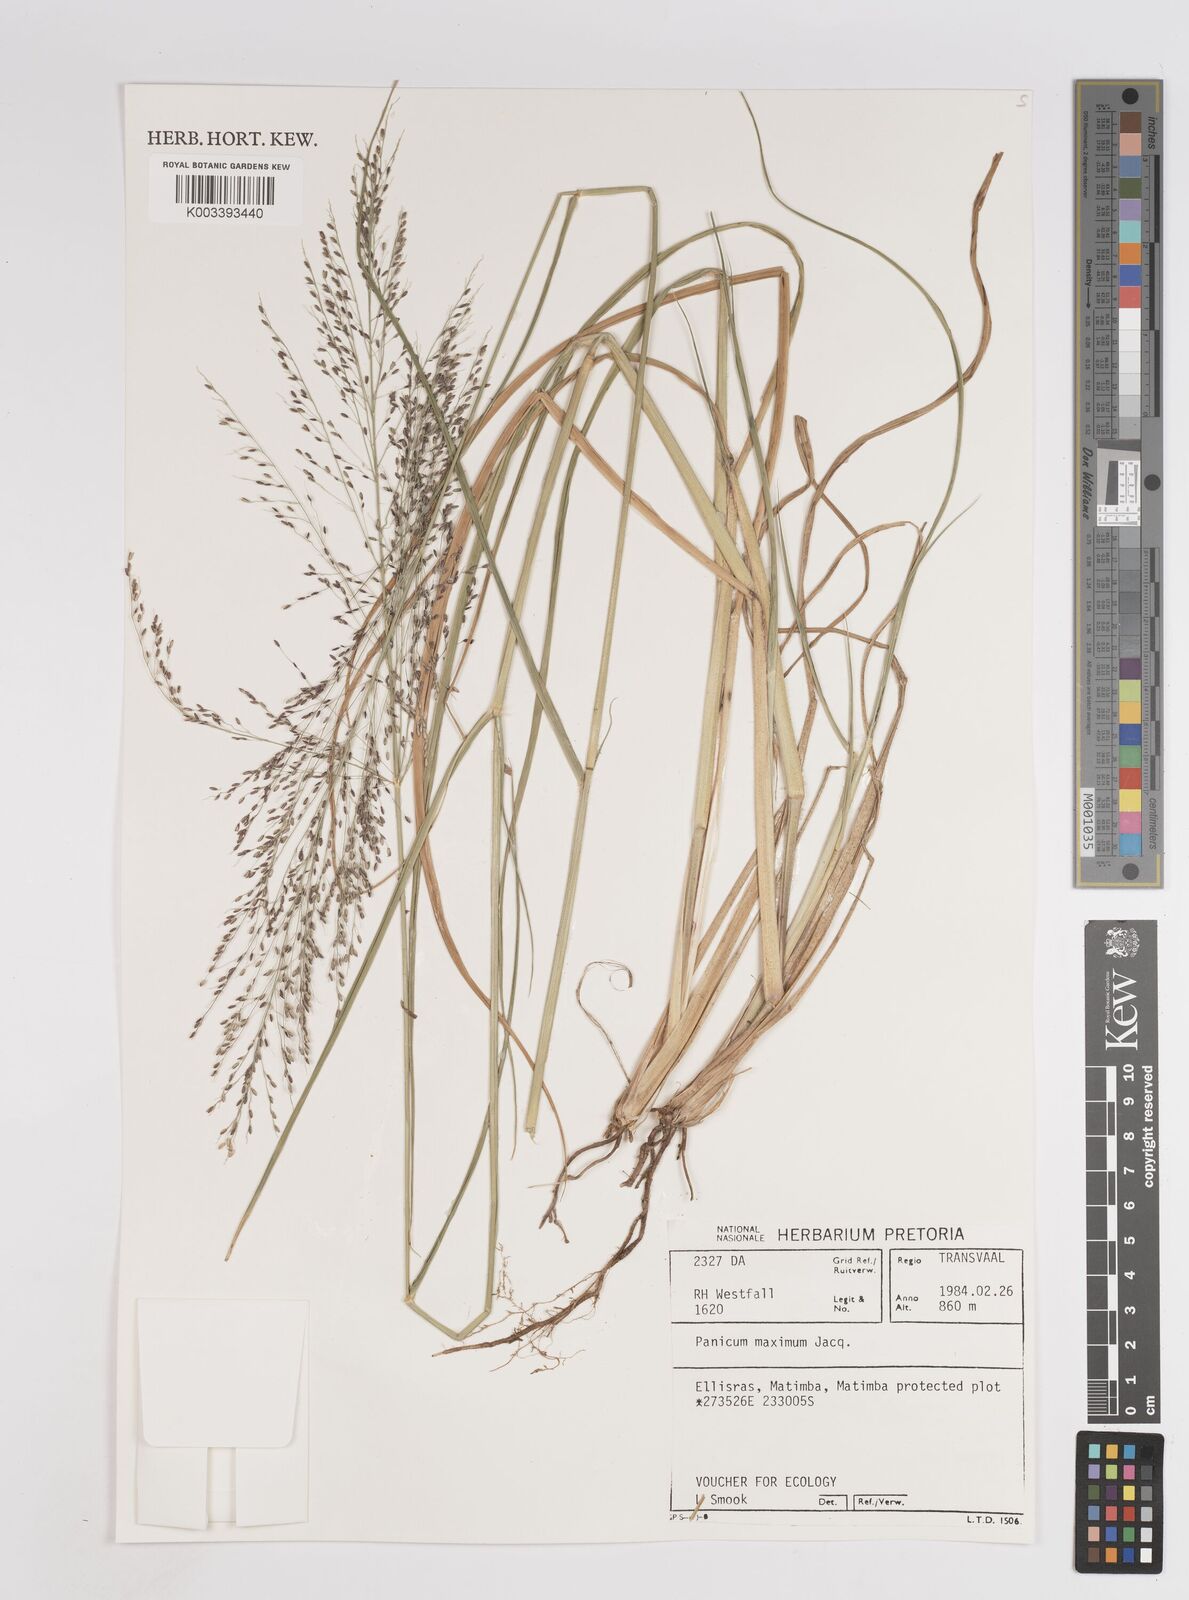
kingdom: Plantae
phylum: Tracheophyta
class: Liliopsida
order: Poales
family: Poaceae
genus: Megathyrsus
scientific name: Megathyrsus maximus
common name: Guineagrass
